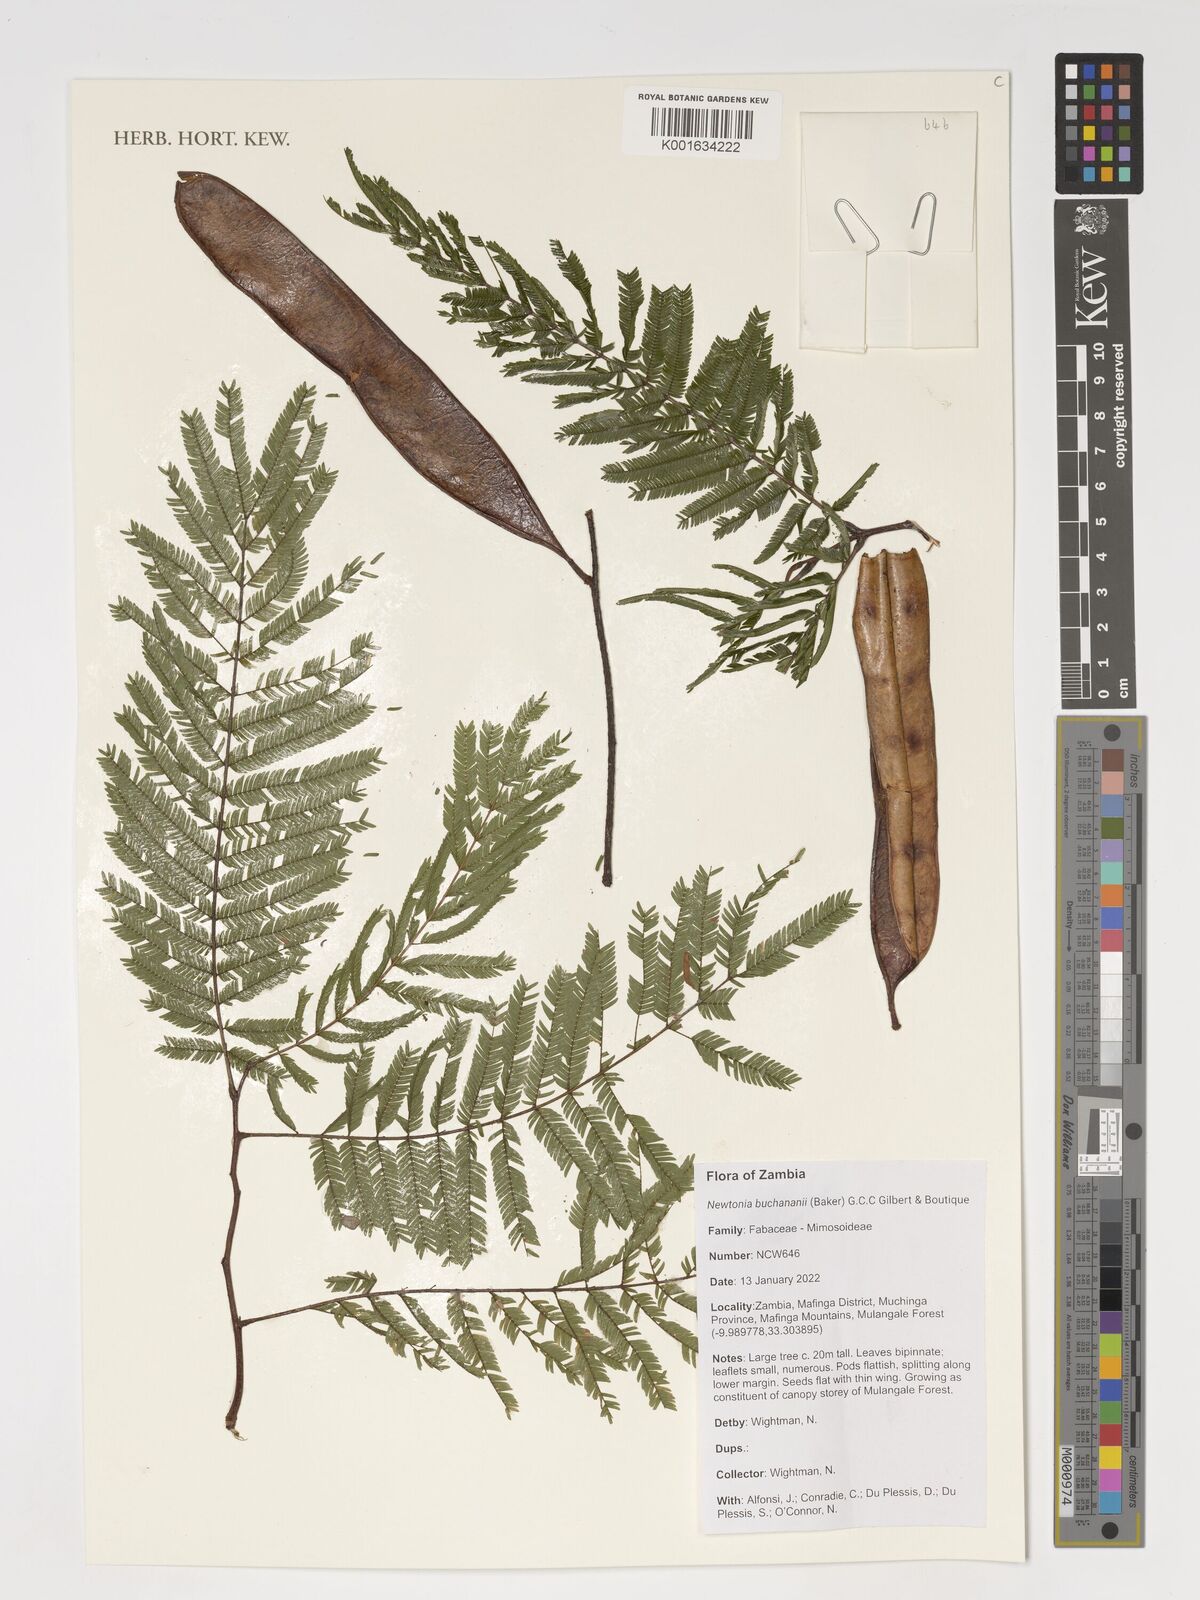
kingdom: Plantae
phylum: Tracheophyta
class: Magnoliopsida
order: Fabales
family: Fabaceae
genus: Newtonia
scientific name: Newtonia buchananii
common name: Forest newtonia
